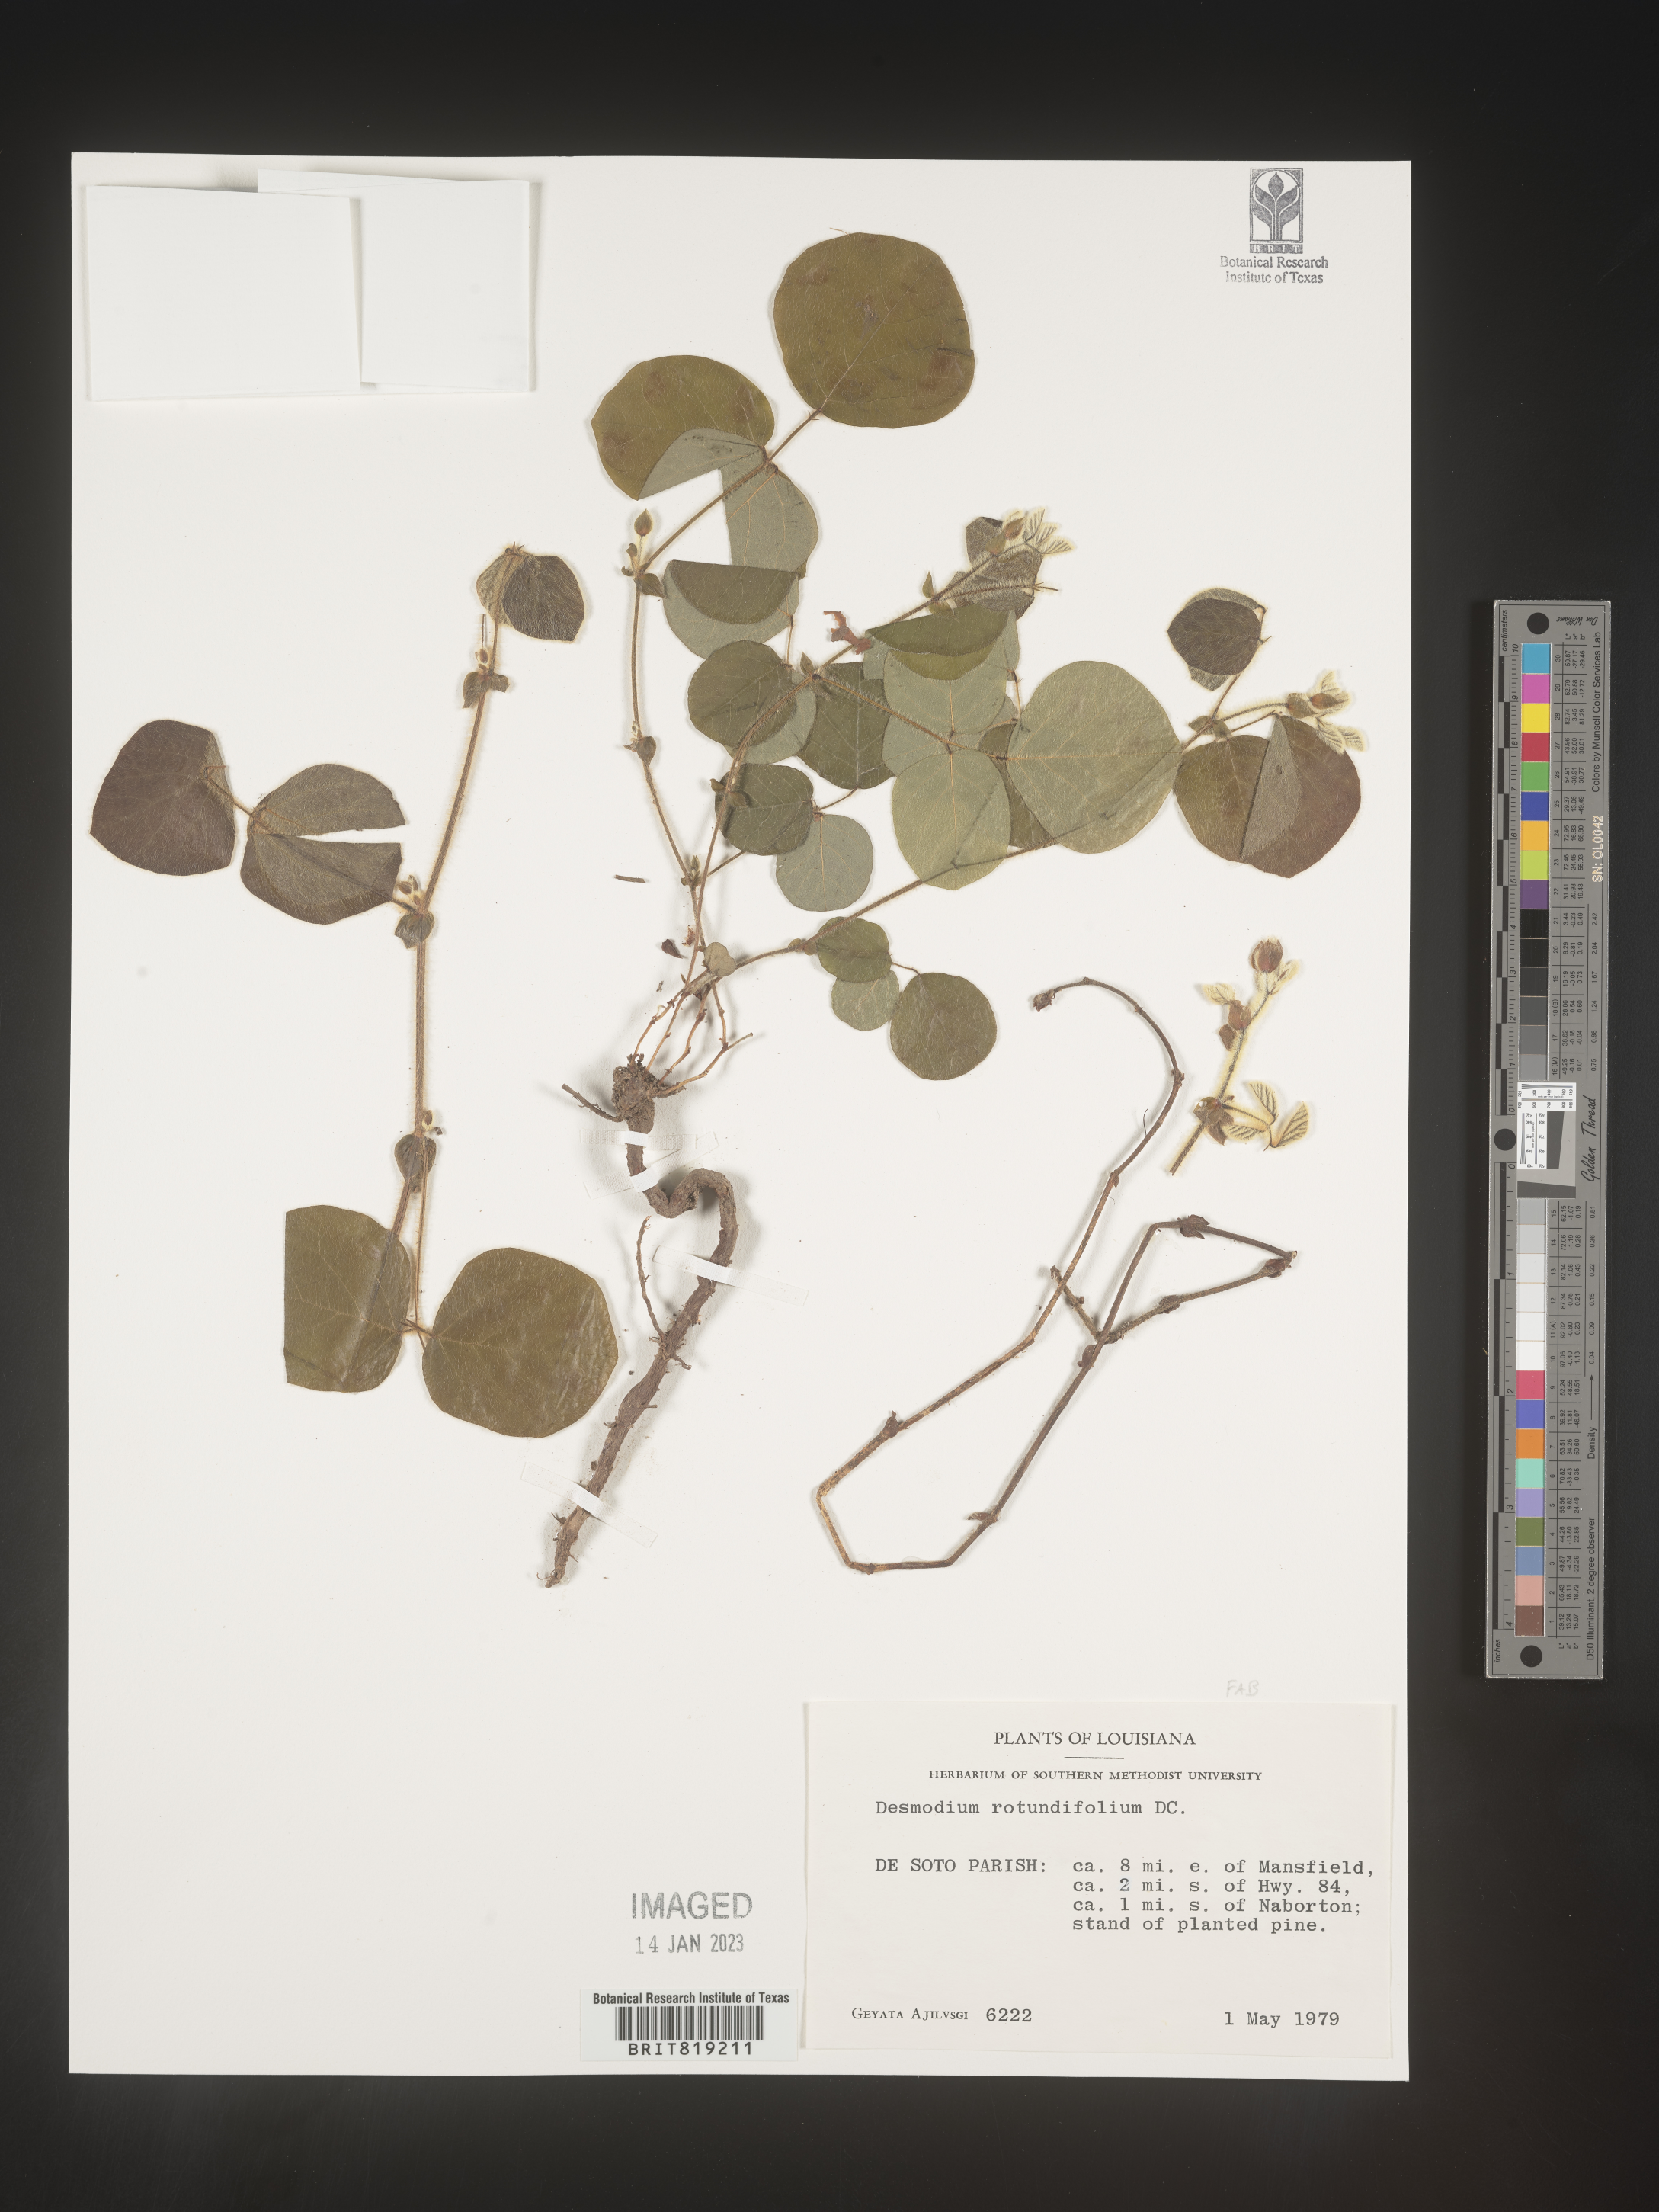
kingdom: Plantae
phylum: Tracheophyta
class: Magnoliopsida
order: Fabales
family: Fabaceae
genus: Desmodium
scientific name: Desmodium rotundifolium
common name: Dollarleaf
